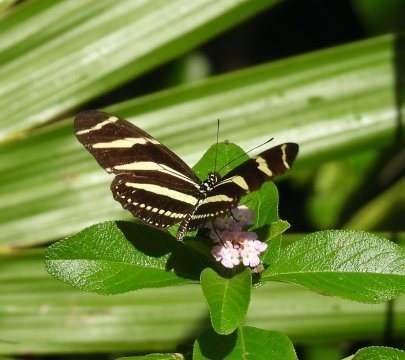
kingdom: Animalia
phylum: Arthropoda
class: Insecta
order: Lepidoptera
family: Nymphalidae
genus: Heliconius
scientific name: Heliconius charithonia
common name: Zebra Longwing
